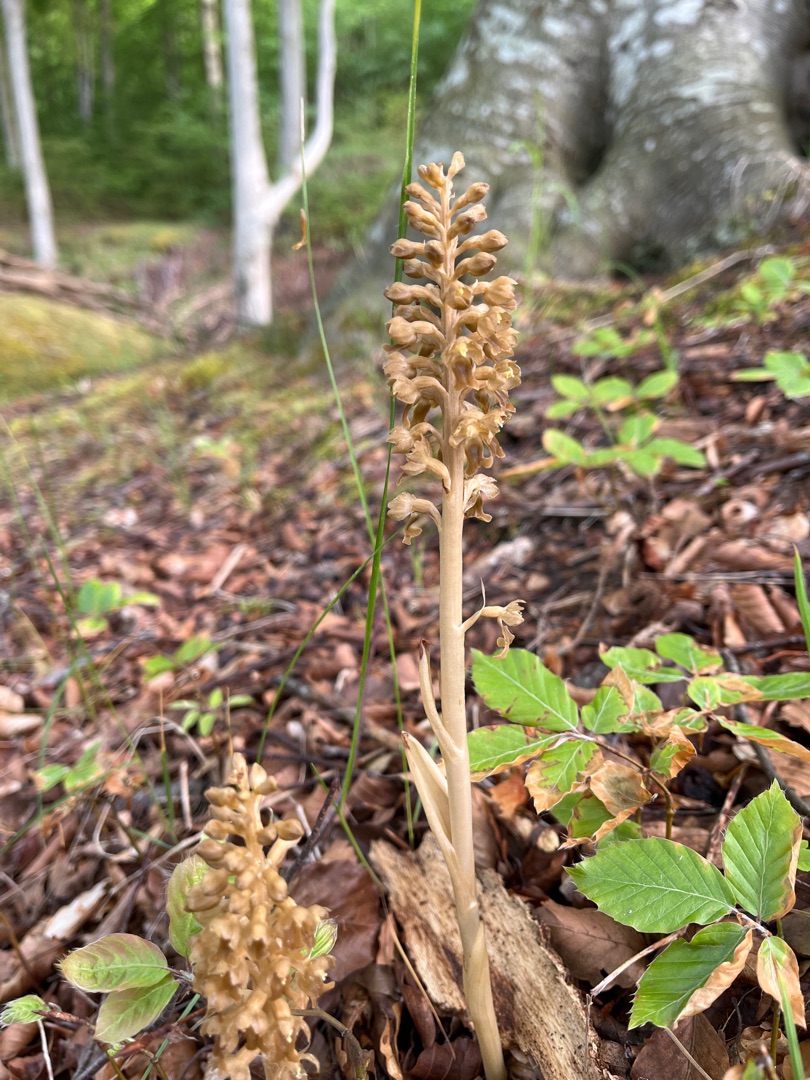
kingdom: Plantae
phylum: Tracheophyta
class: Liliopsida
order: Asparagales
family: Orchidaceae
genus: Neottia
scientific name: Neottia nidus-avis
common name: Rederod
